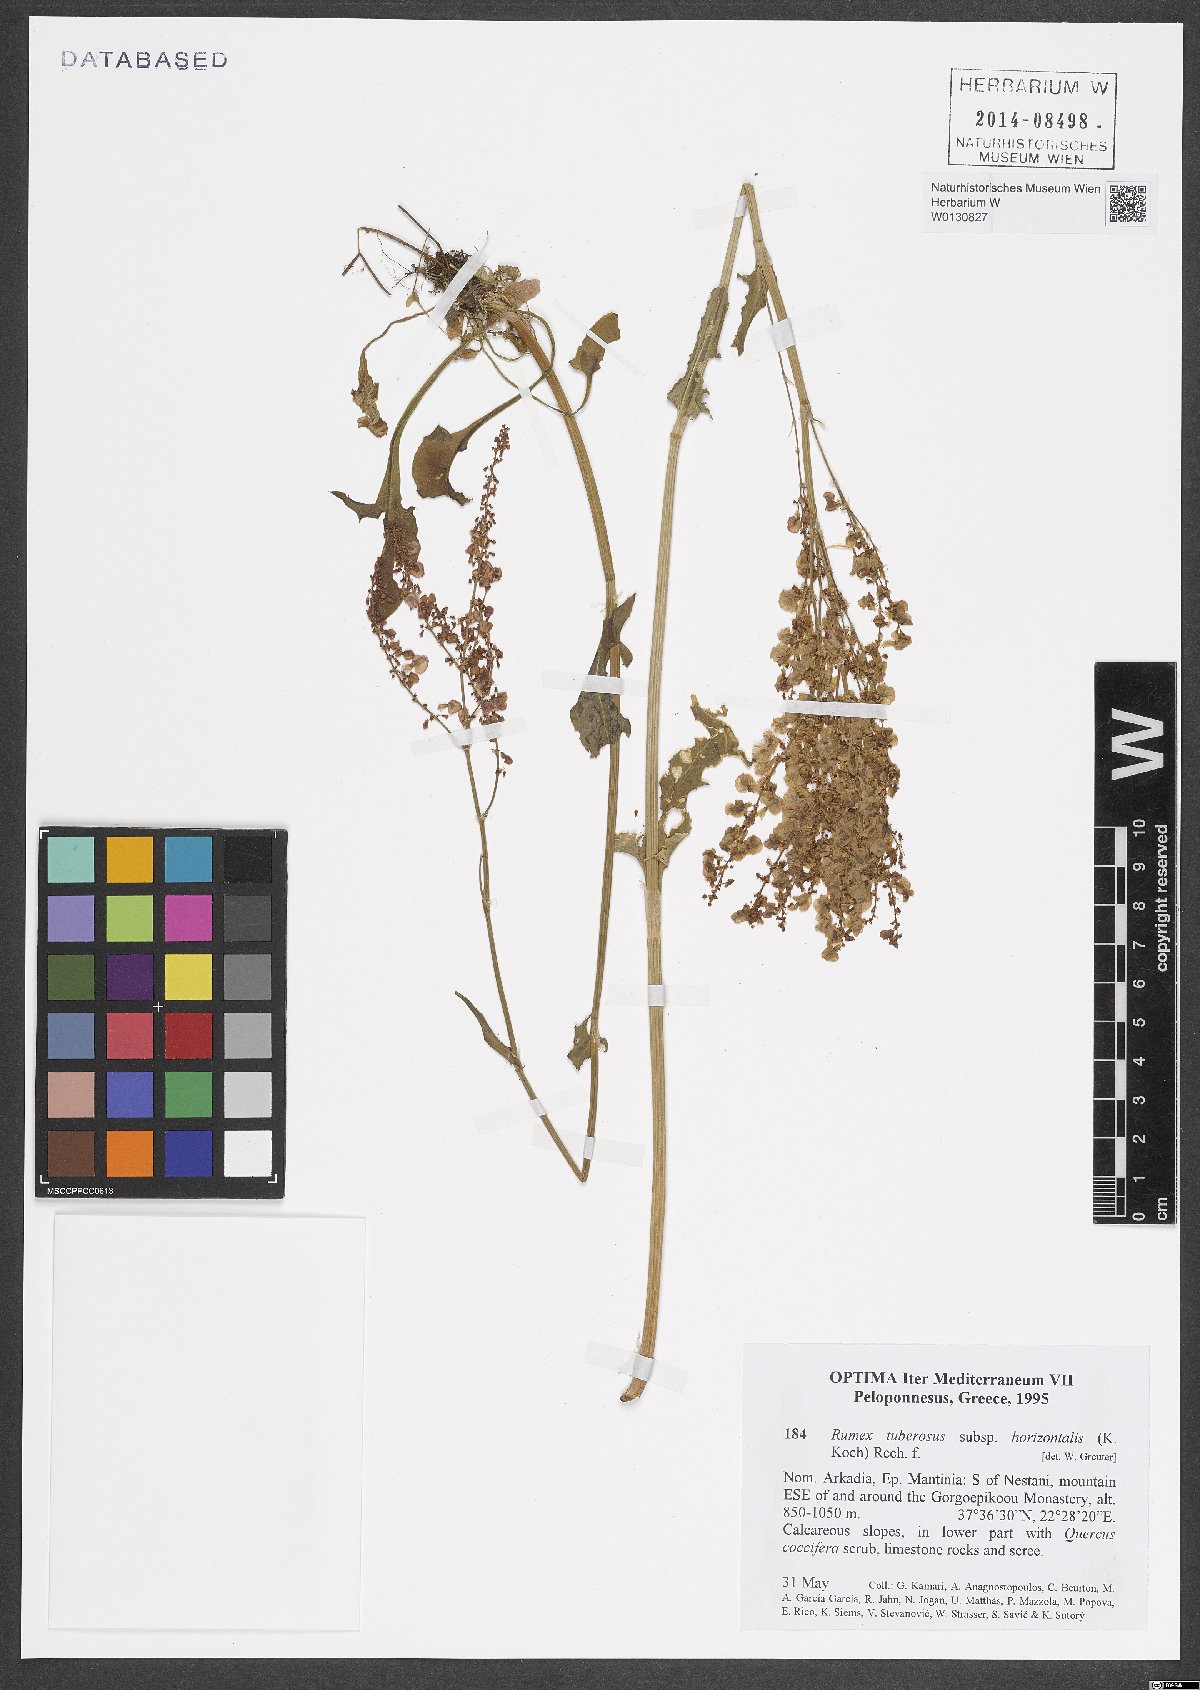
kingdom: Plantae
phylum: Tracheophyta
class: Magnoliopsida
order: Caryophyllales
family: Polygonaceae
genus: Rumex
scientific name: Rumex tuberosus
